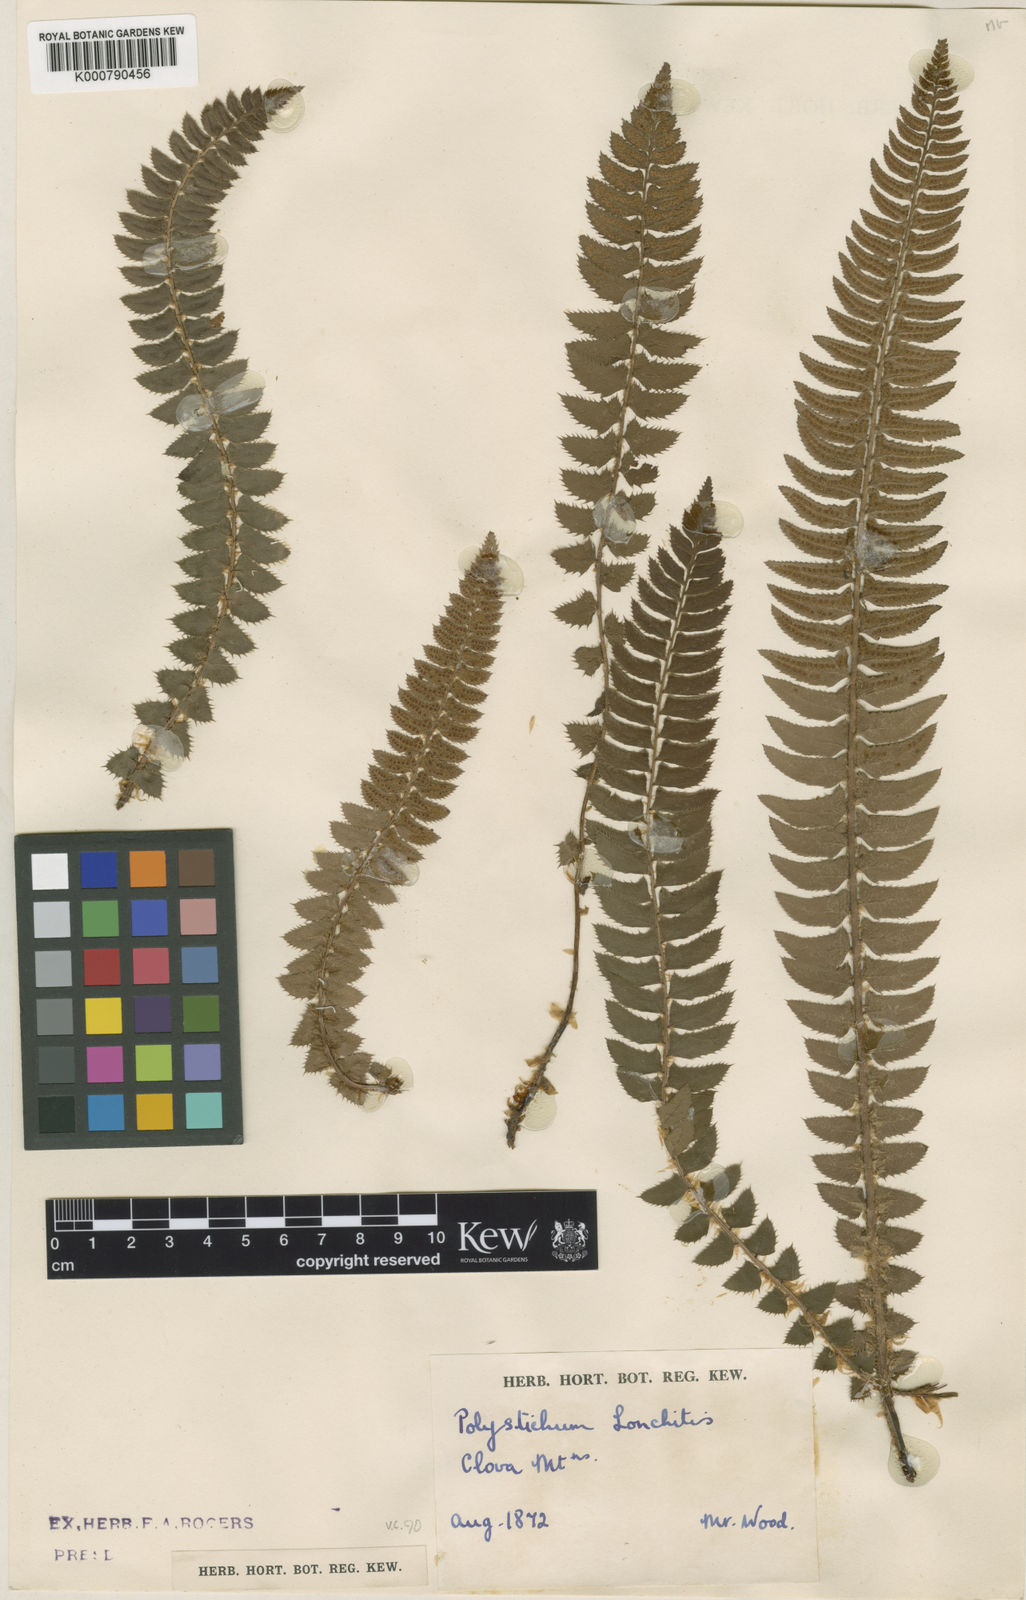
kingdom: Plantae
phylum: Tracheophyta
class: Polypodiopsida
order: Polypodiales
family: Dryopteridaceae
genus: Polystichum
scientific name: Polystichum
